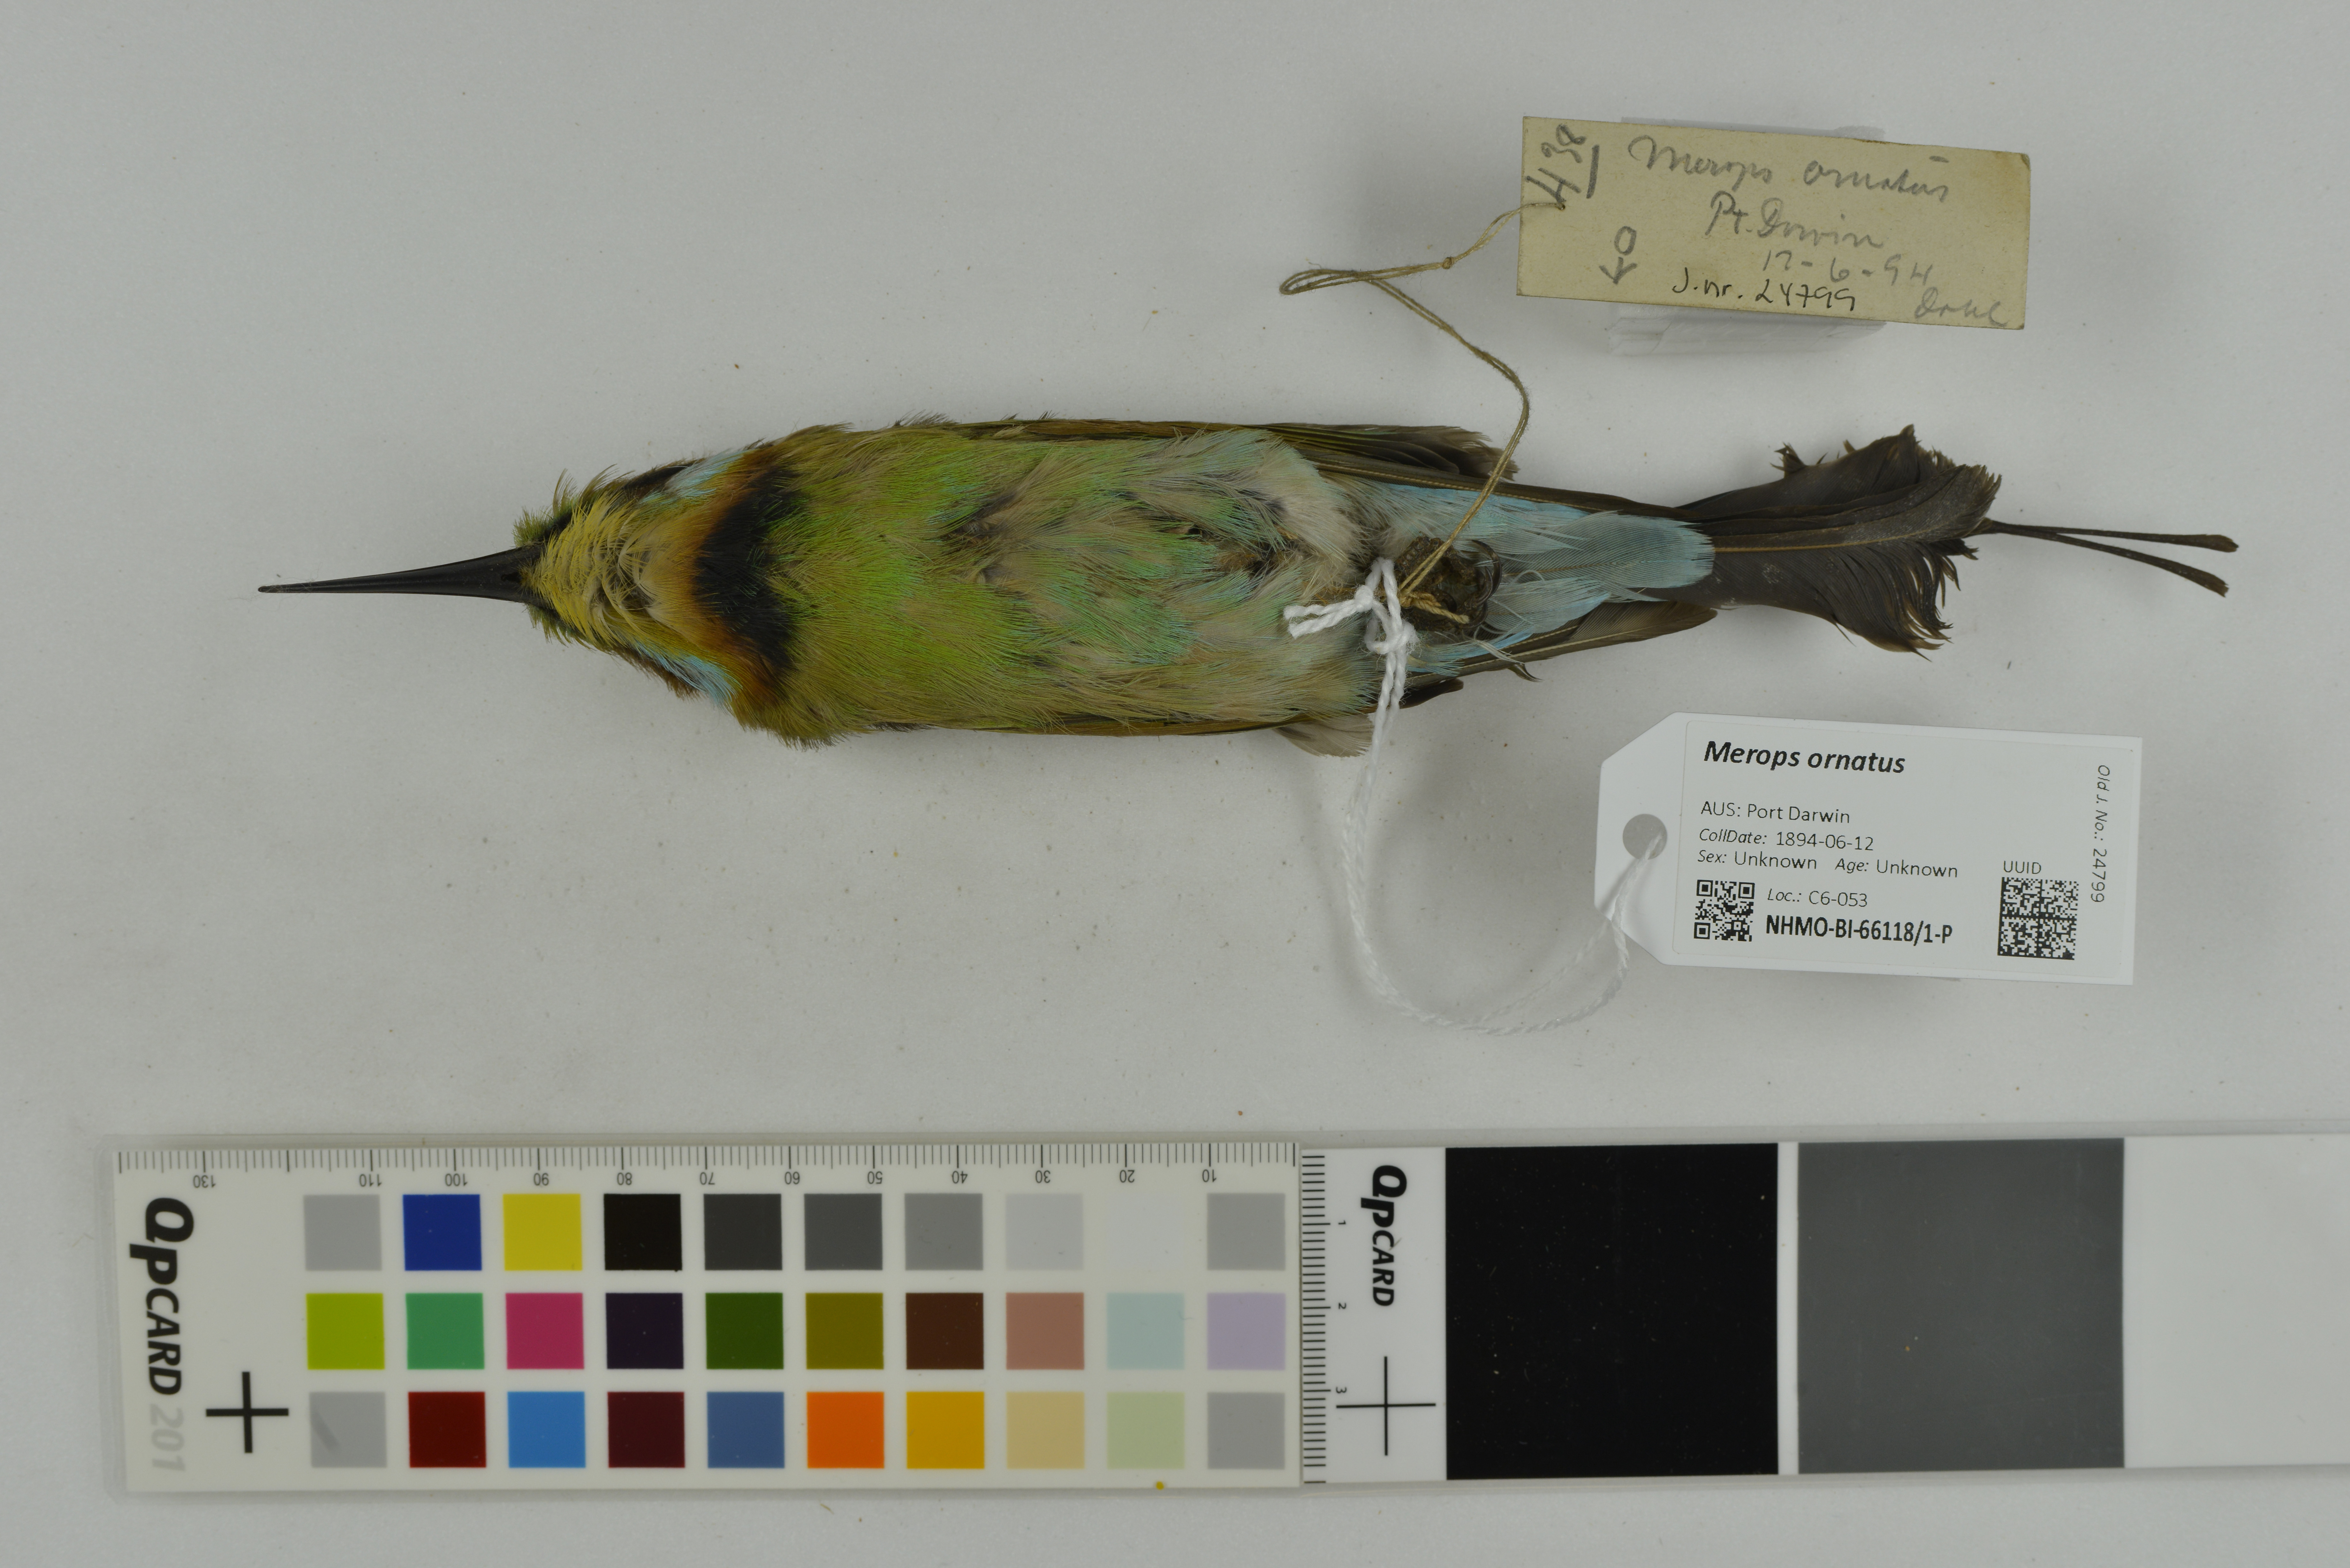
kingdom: Animalia
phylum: Chordata
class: Aves
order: Coraciiformes
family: Meropidae
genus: Merops
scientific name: Merops ornatus
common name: Rainbow bee-eater
